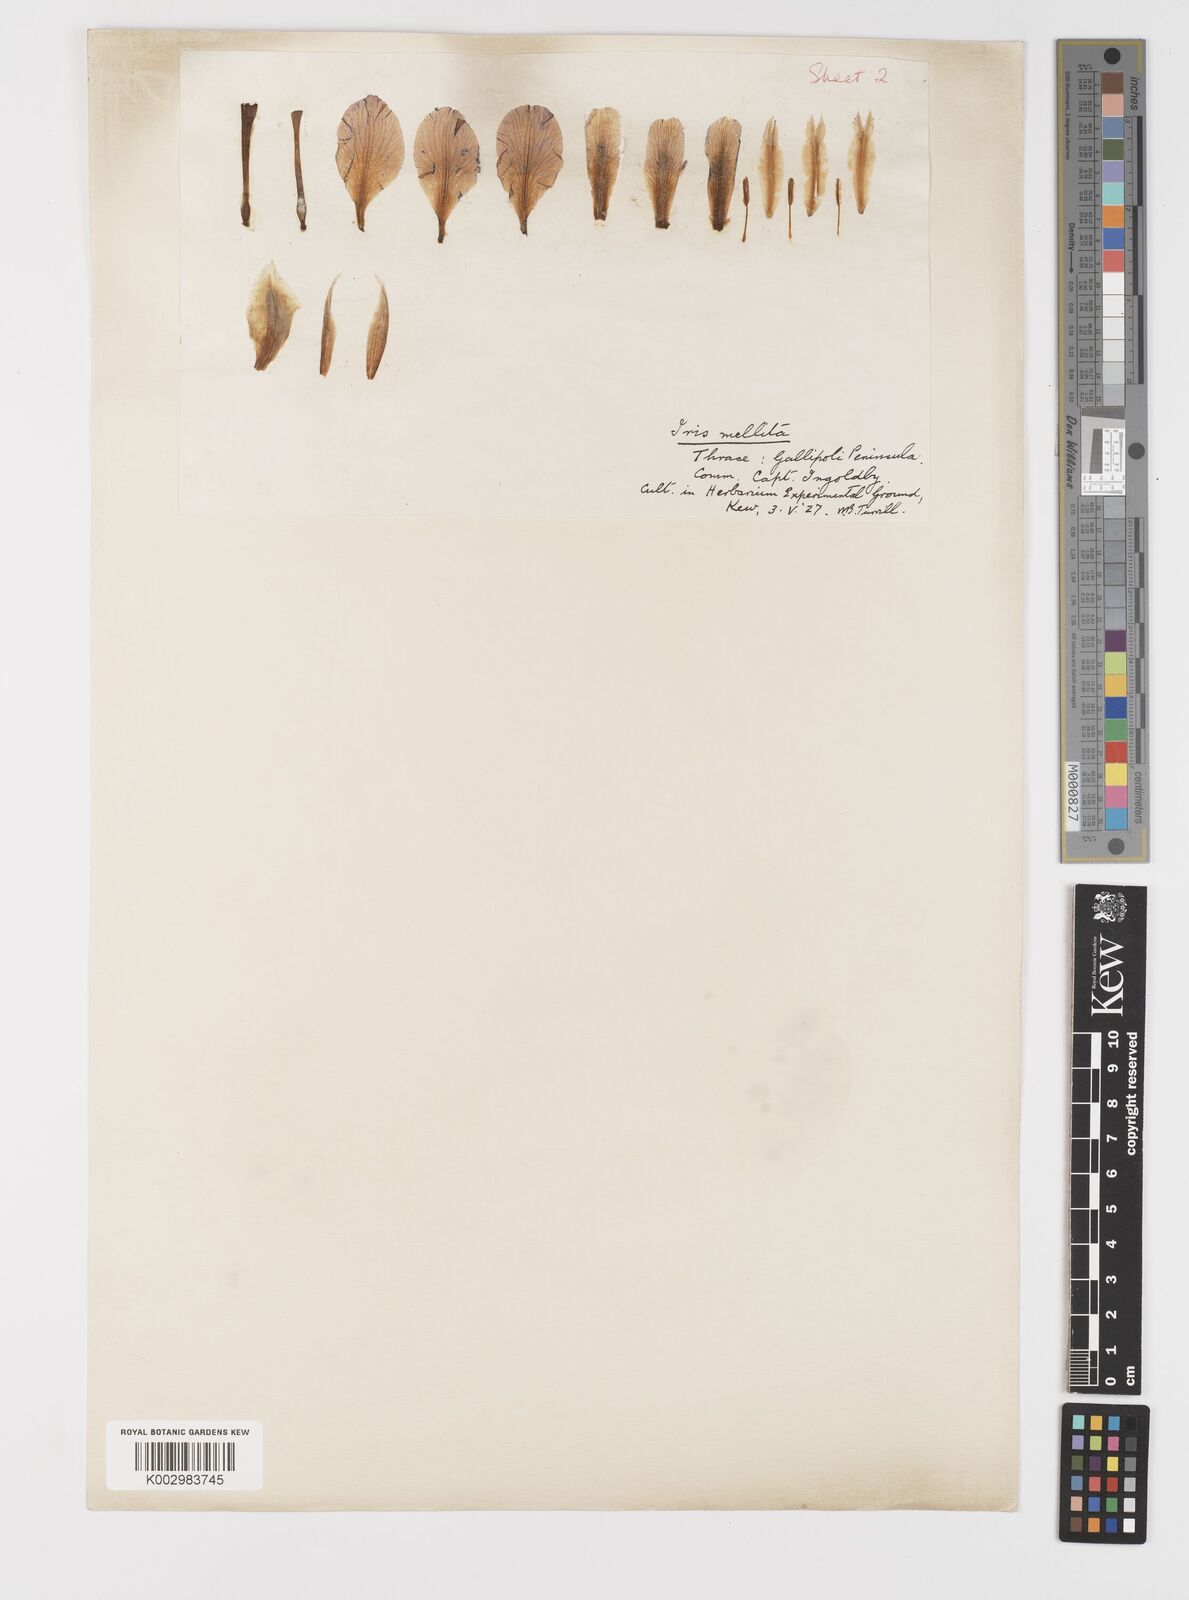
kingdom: Plantae
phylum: Tracheophyta
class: Liliopsida
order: Asparagales
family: Iridaceae
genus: Iris
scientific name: Iris suaveolens
